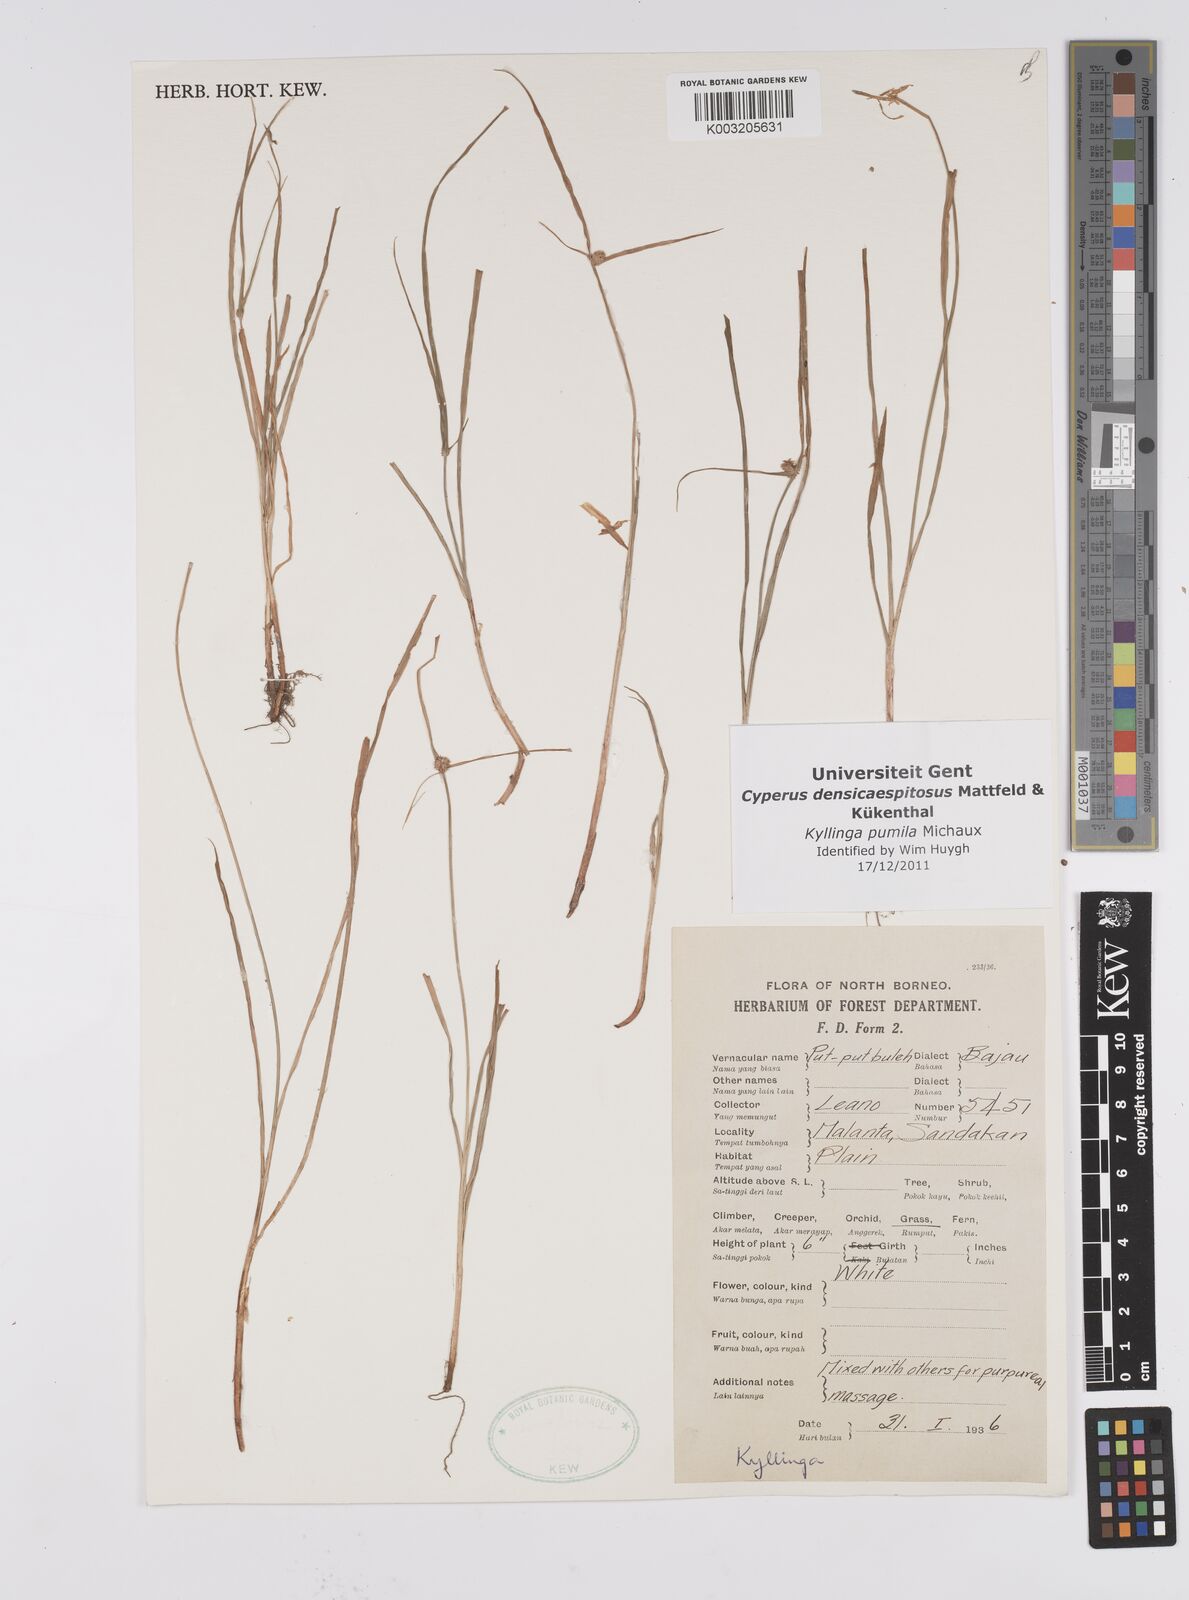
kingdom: Plantae
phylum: Tracheophyta
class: Liliopsida
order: Poales
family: Cyperaceae
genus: Cyperus
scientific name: Cyperus pumilus
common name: Low flatsedge
